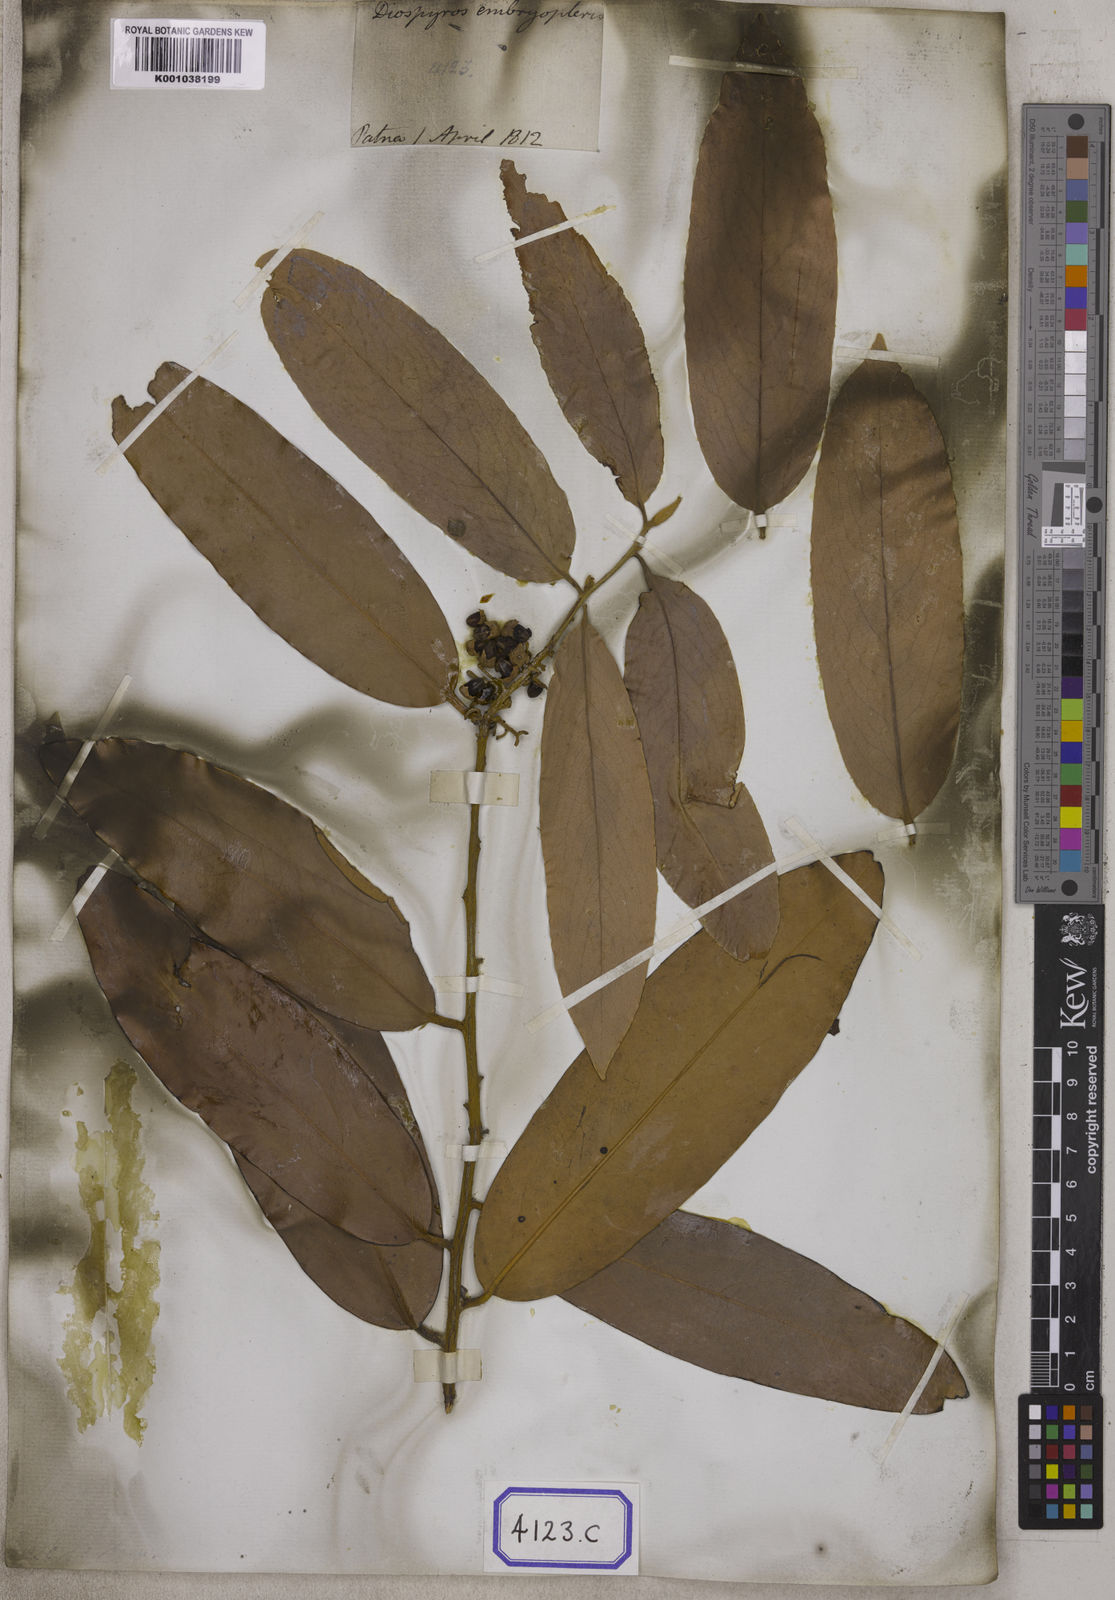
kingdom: Plantae
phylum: Tracheophyta
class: Magnoliopsida
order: Ericales
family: Ebenaceae
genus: Diospyros
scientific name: Diospyros malabarica
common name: Mountain ebony
